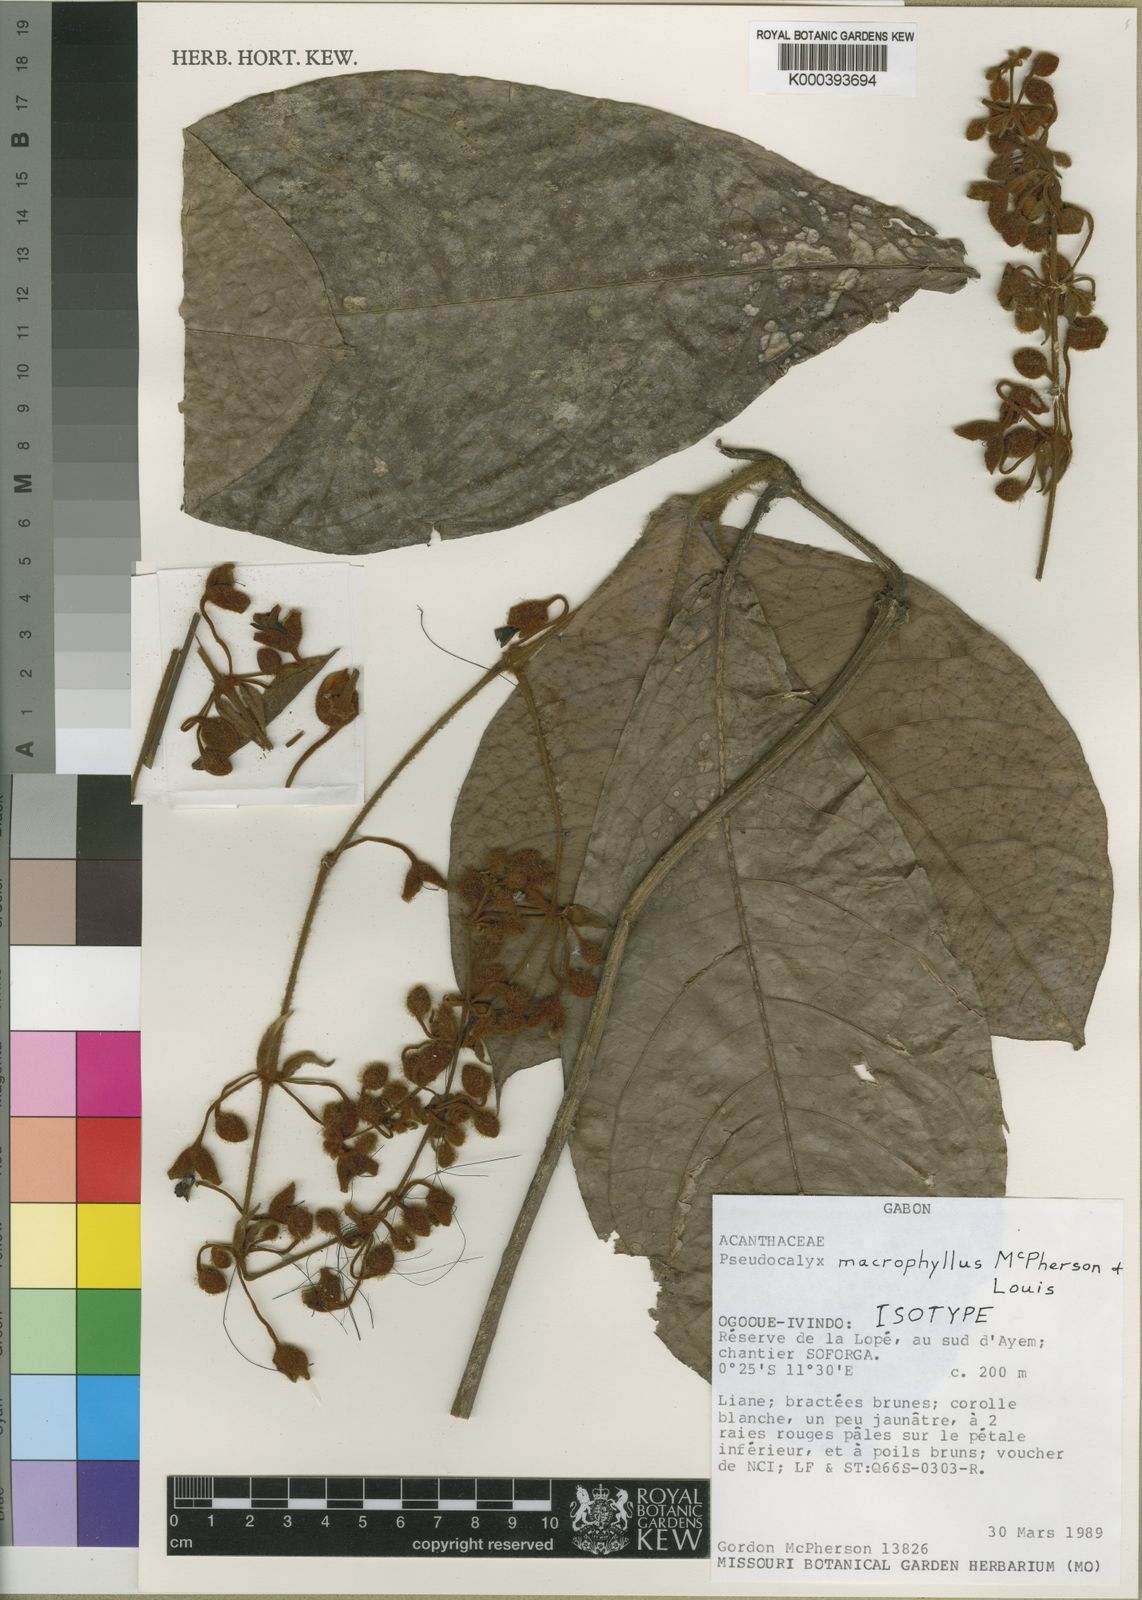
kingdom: Plantae
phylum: Tracheophyta
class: Magnoliopsida
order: Lamiales
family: Acanthaceae
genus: Pseudocalyx
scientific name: Pseudocalyx macrophyllus
